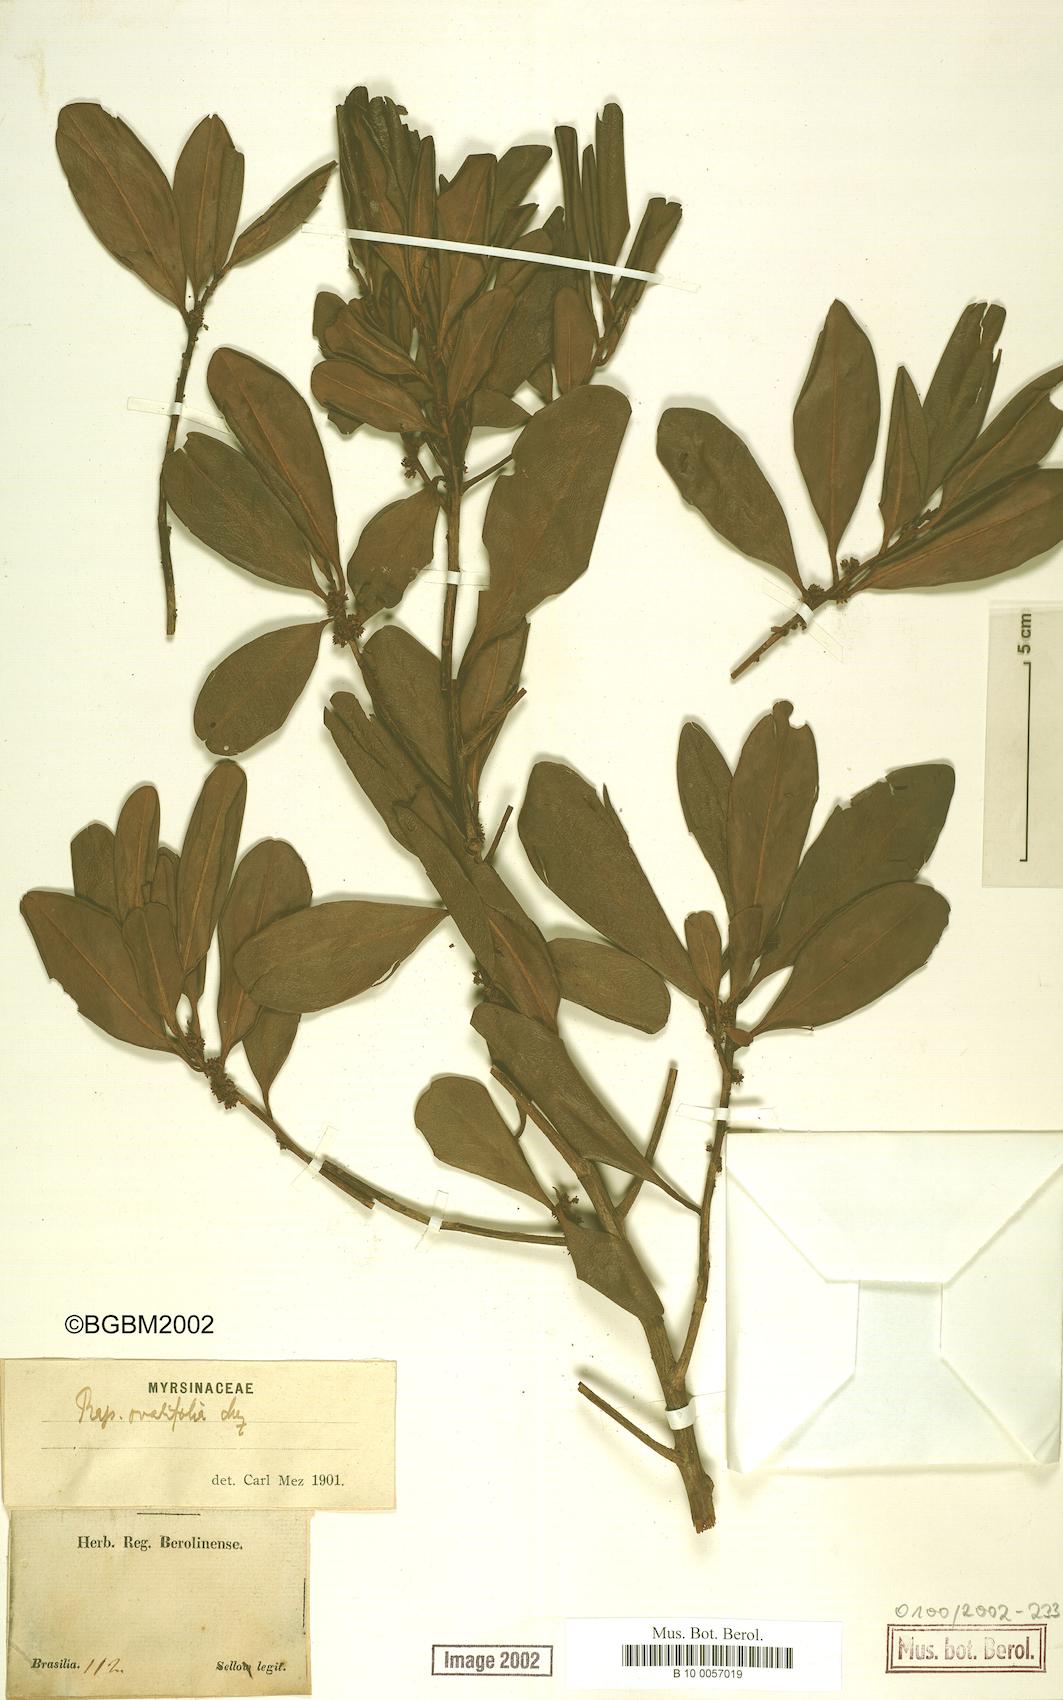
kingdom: Plantae
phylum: Tracheophyta
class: Magnoliopsida
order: Ericales
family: Primulaceae
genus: Myrsine
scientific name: Myrsine miquelii
